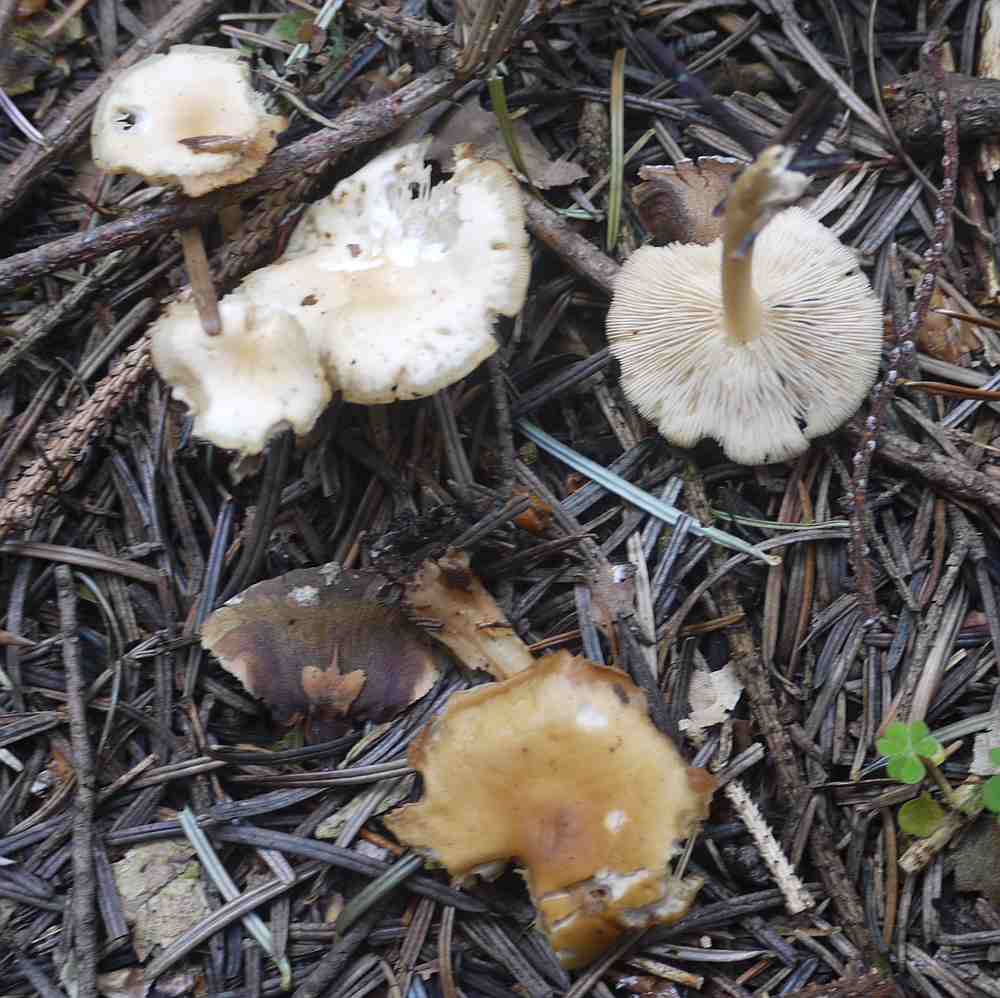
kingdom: Fungi
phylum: Basidiomycota
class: Agaricomycetes
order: Agaricales
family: Omphalotaceae
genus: Gymnopus
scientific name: Gymnopus dryophilus
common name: løv-fladhat
